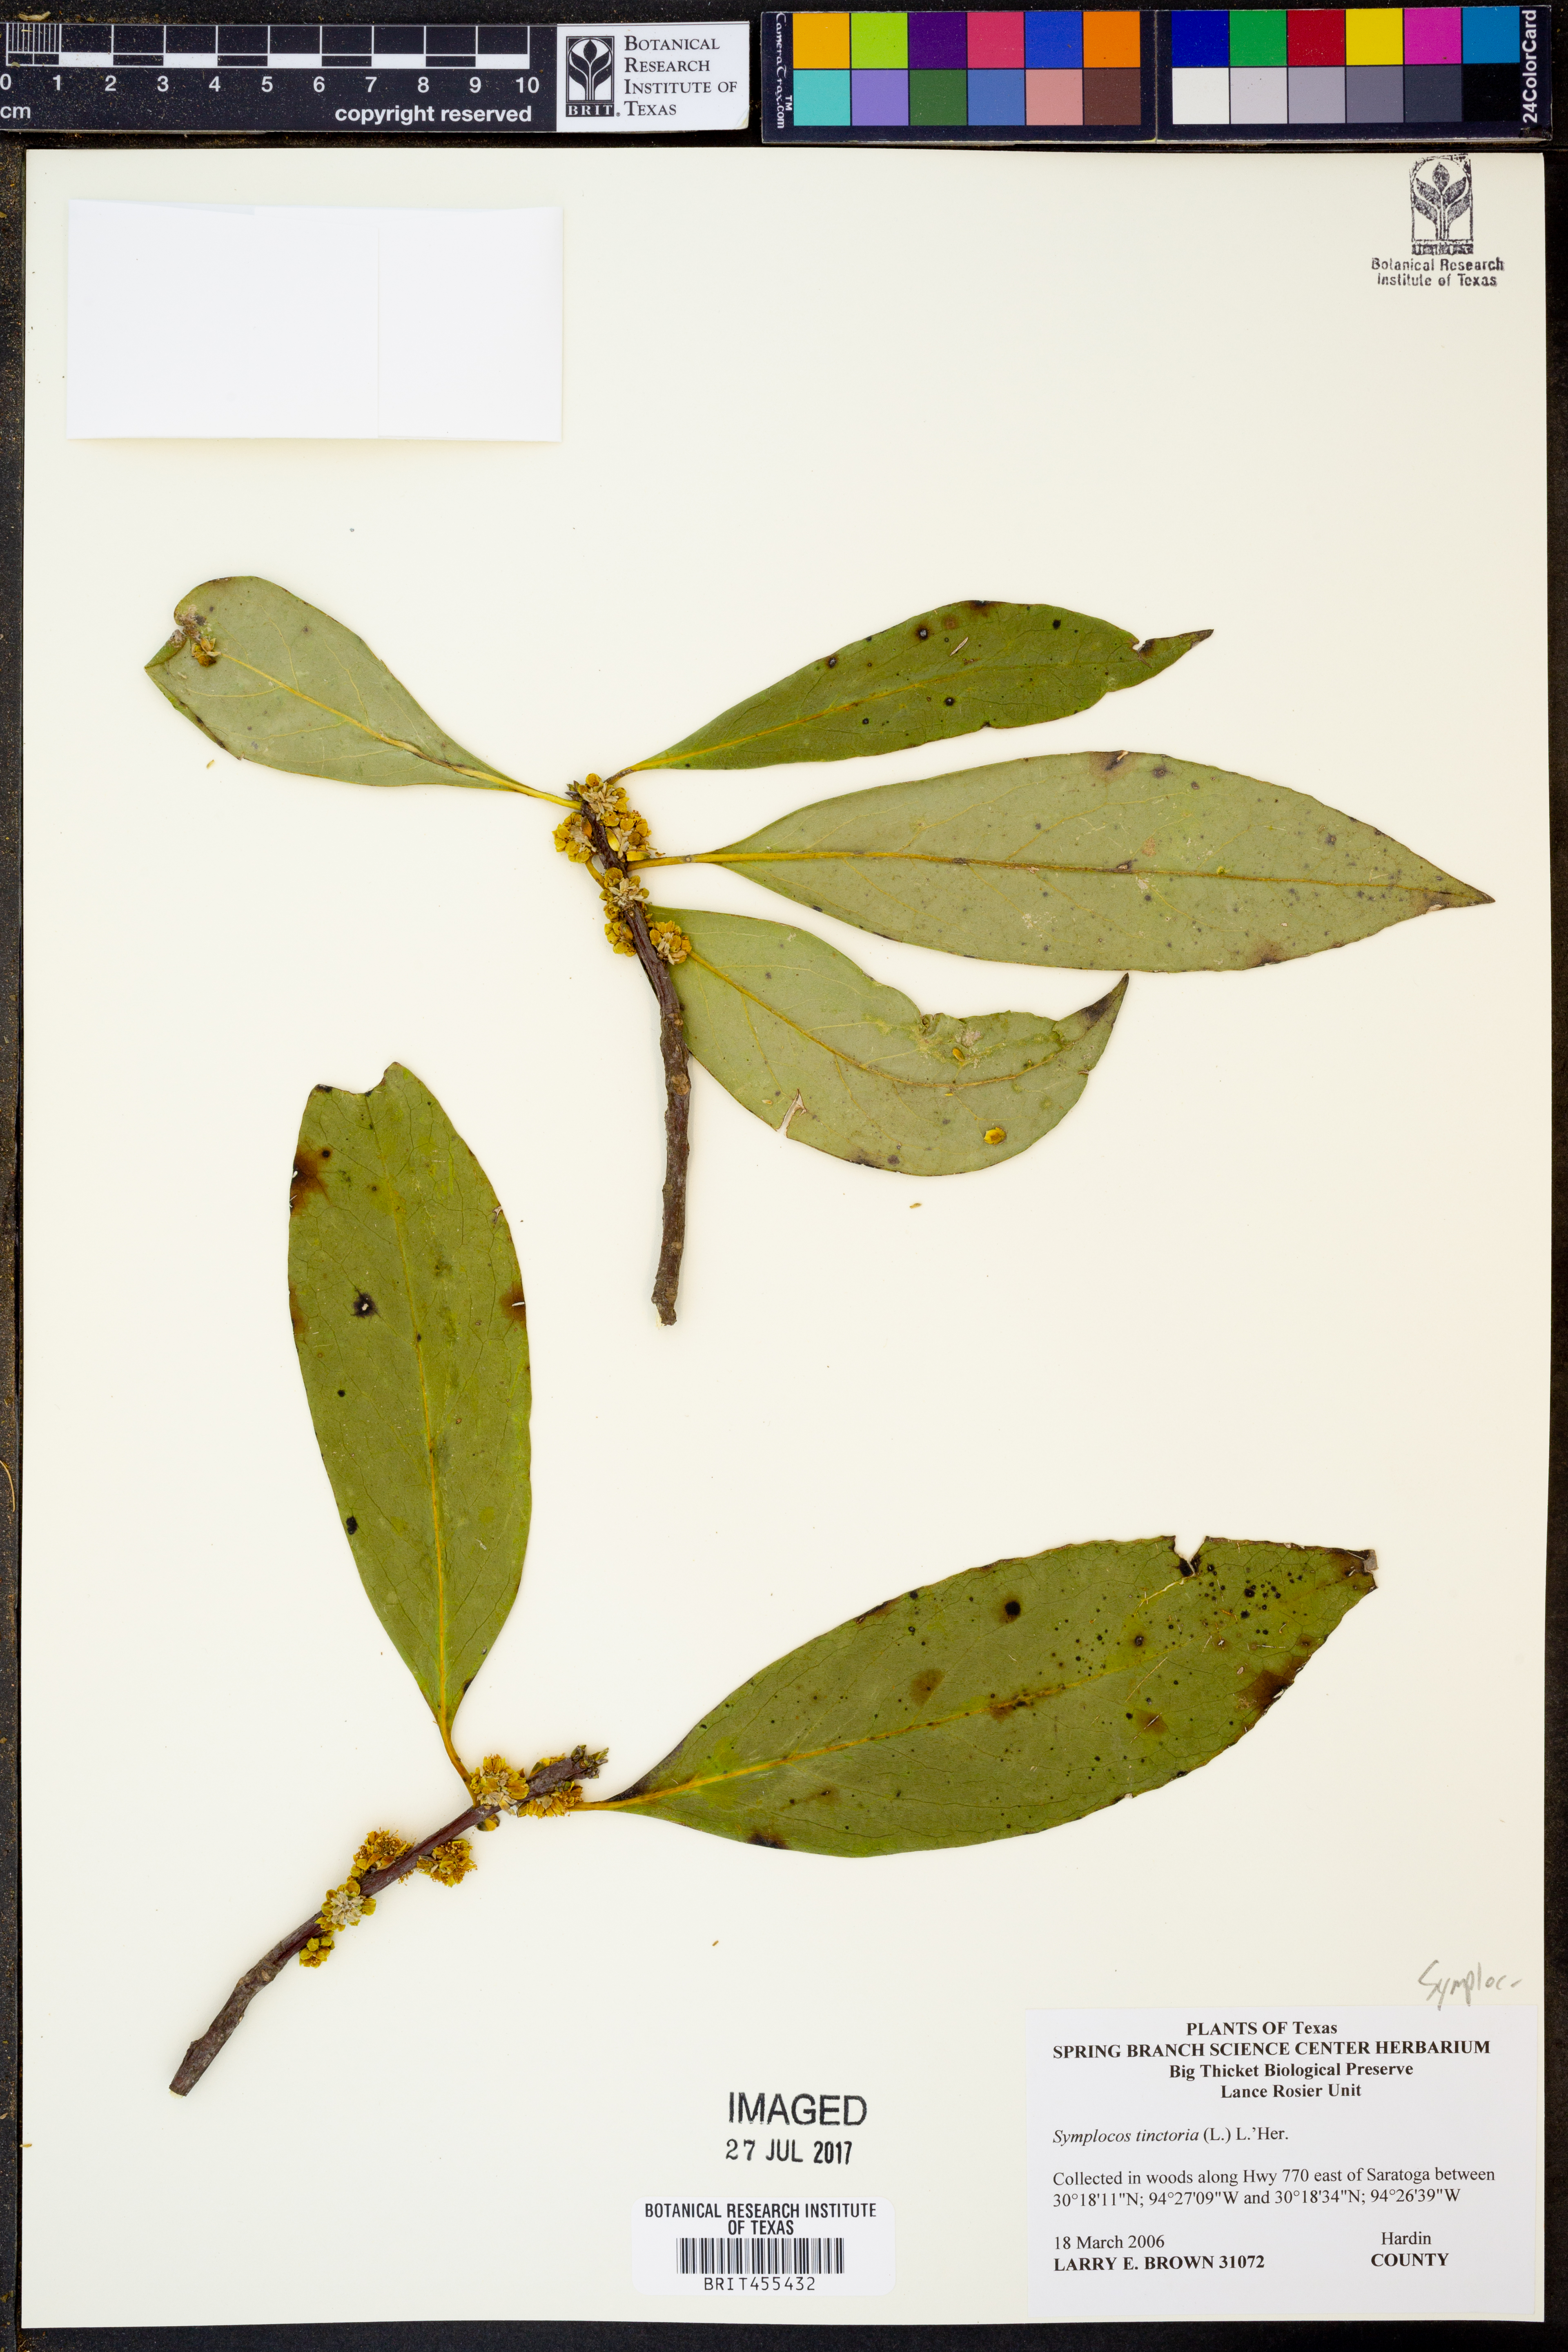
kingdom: Plantae
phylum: Tracheophyta
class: Magnoliopsida
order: Ericales
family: Symplocaceae
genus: Symplocos
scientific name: Symplocos tinctoria
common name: Horse-sugar
